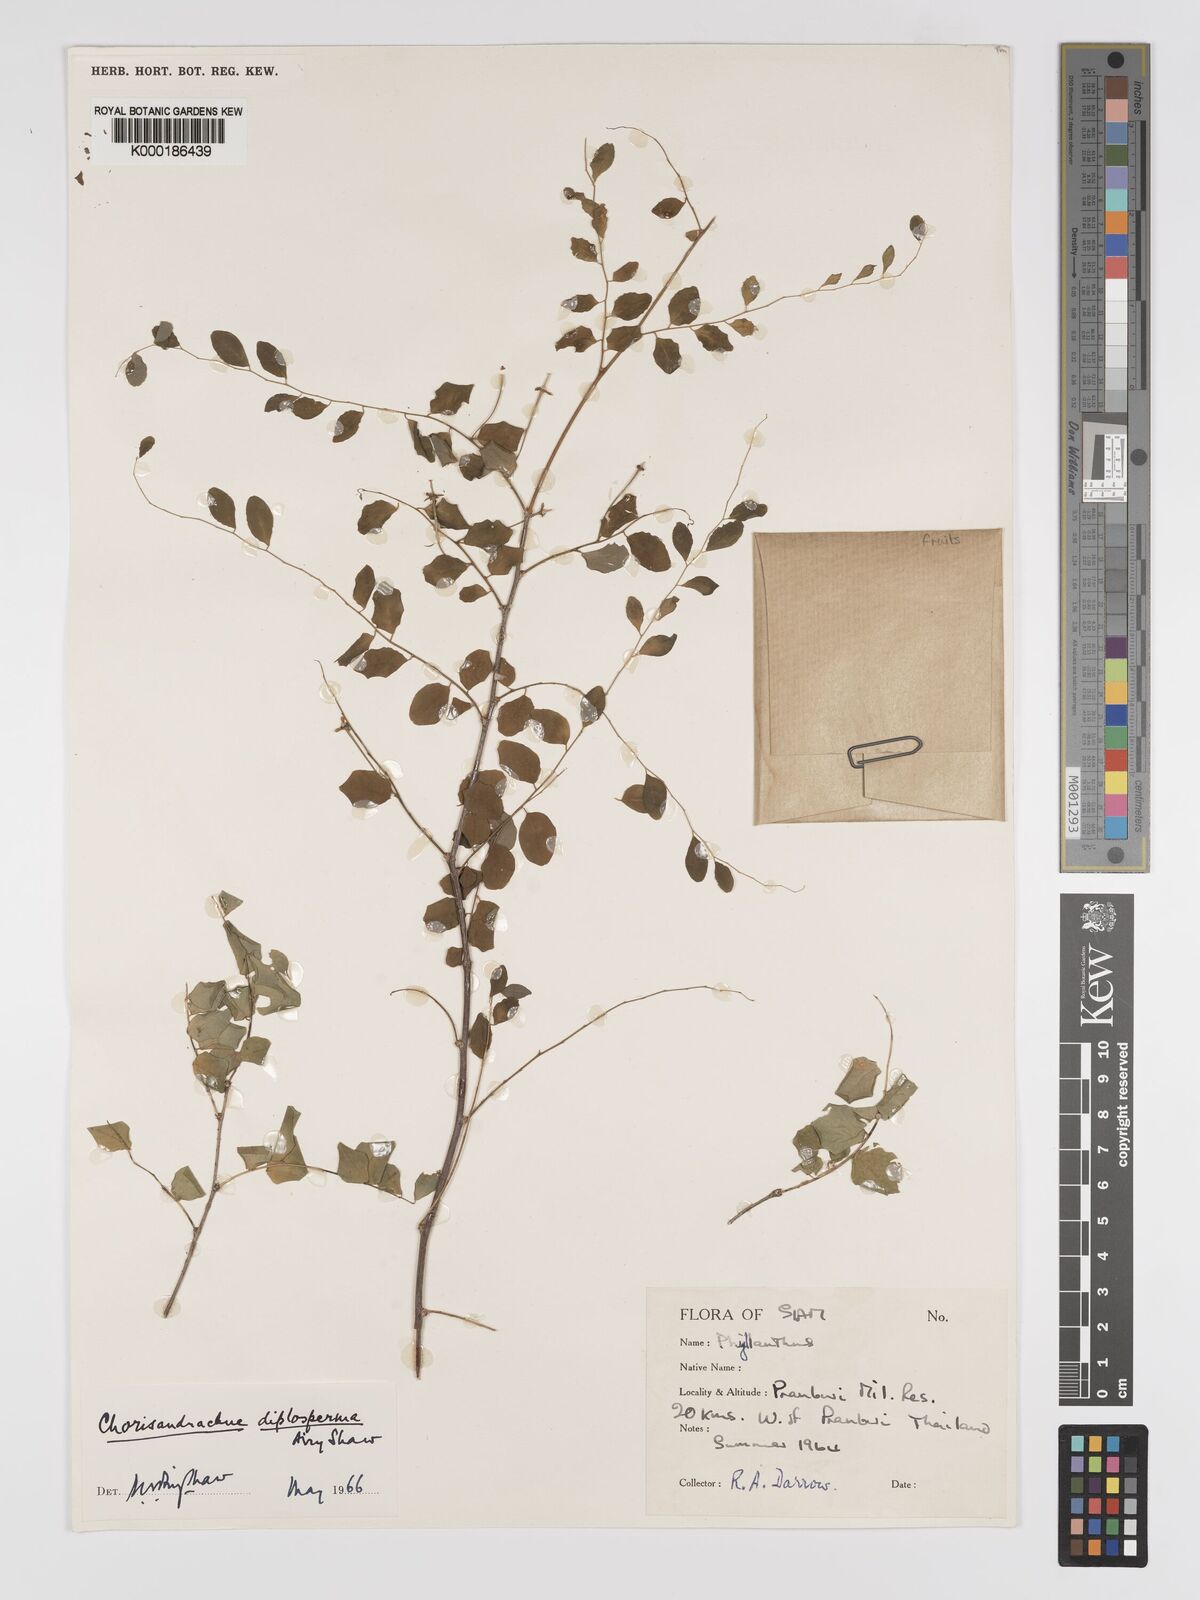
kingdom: Plantae
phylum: Tracheophyta
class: Magnoliopsida
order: Malpighiales
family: Phyllanthaceae
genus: Andrachne
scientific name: Andrachne
